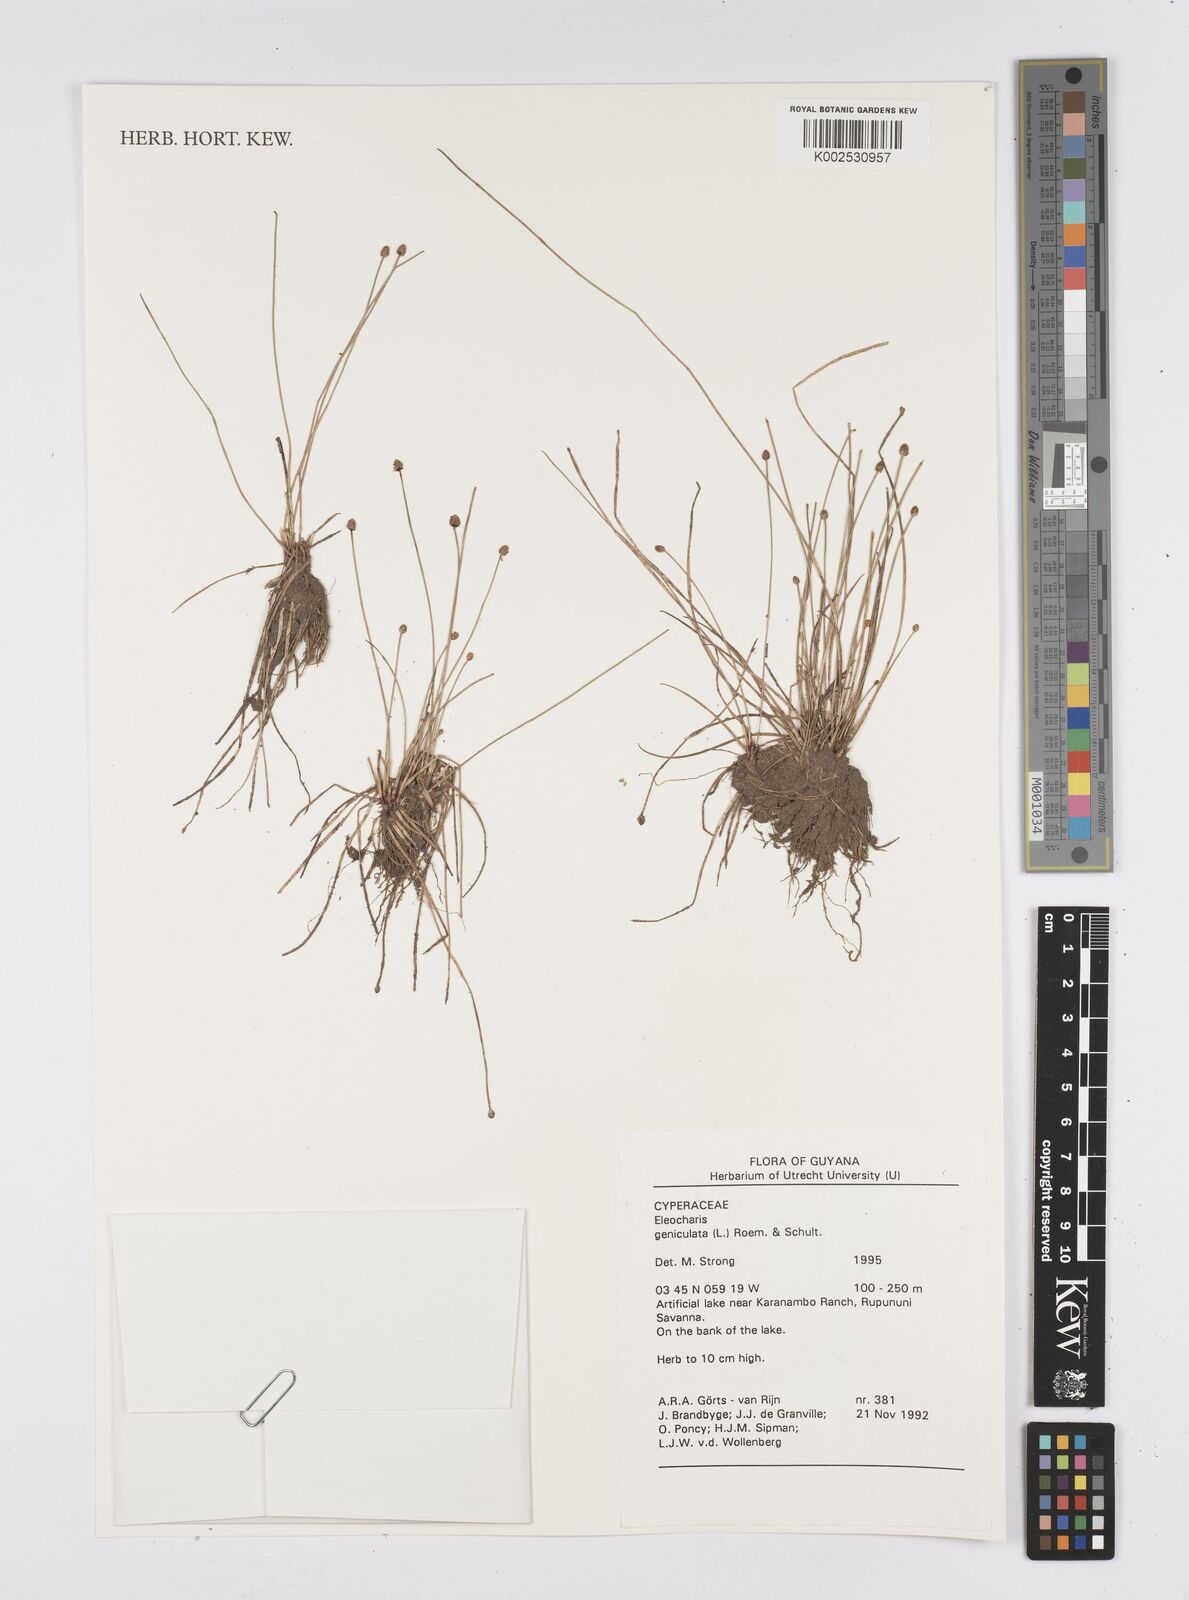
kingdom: Plantae
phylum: Tracheophyta
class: Liliopsida
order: Poales
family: Cyperaceae
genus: Eleocharis
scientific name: Eleocharis geniculata
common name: Canada spikesedge
